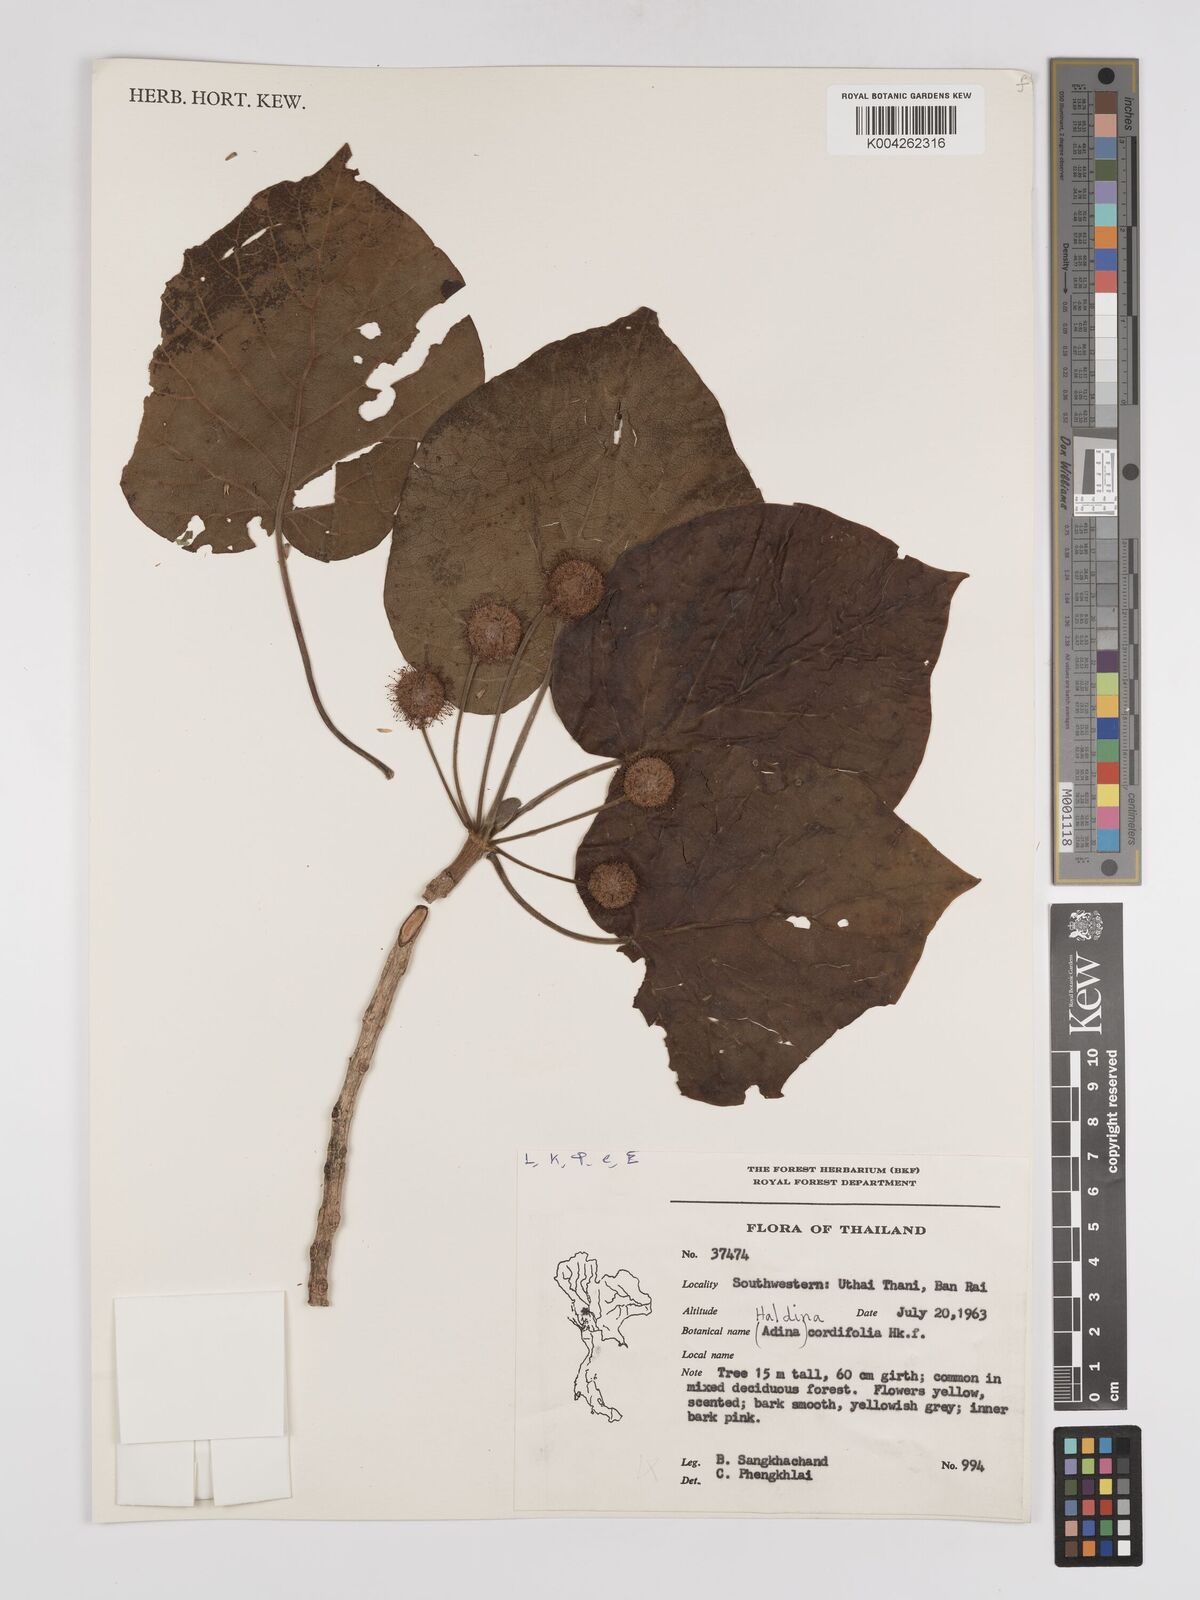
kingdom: Plantae
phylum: Tracheophyta
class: Magnoliopsida
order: Gentianales
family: Rubiaceae
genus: Adina
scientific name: Adina cordifolia
